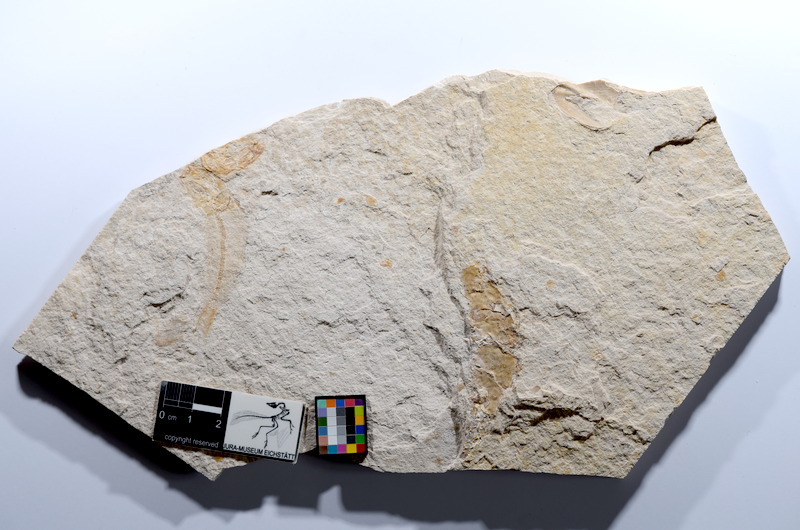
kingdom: Animalia
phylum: Chordata
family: Ascalaboidae
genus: Tharsis
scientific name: Tharsis dubius
